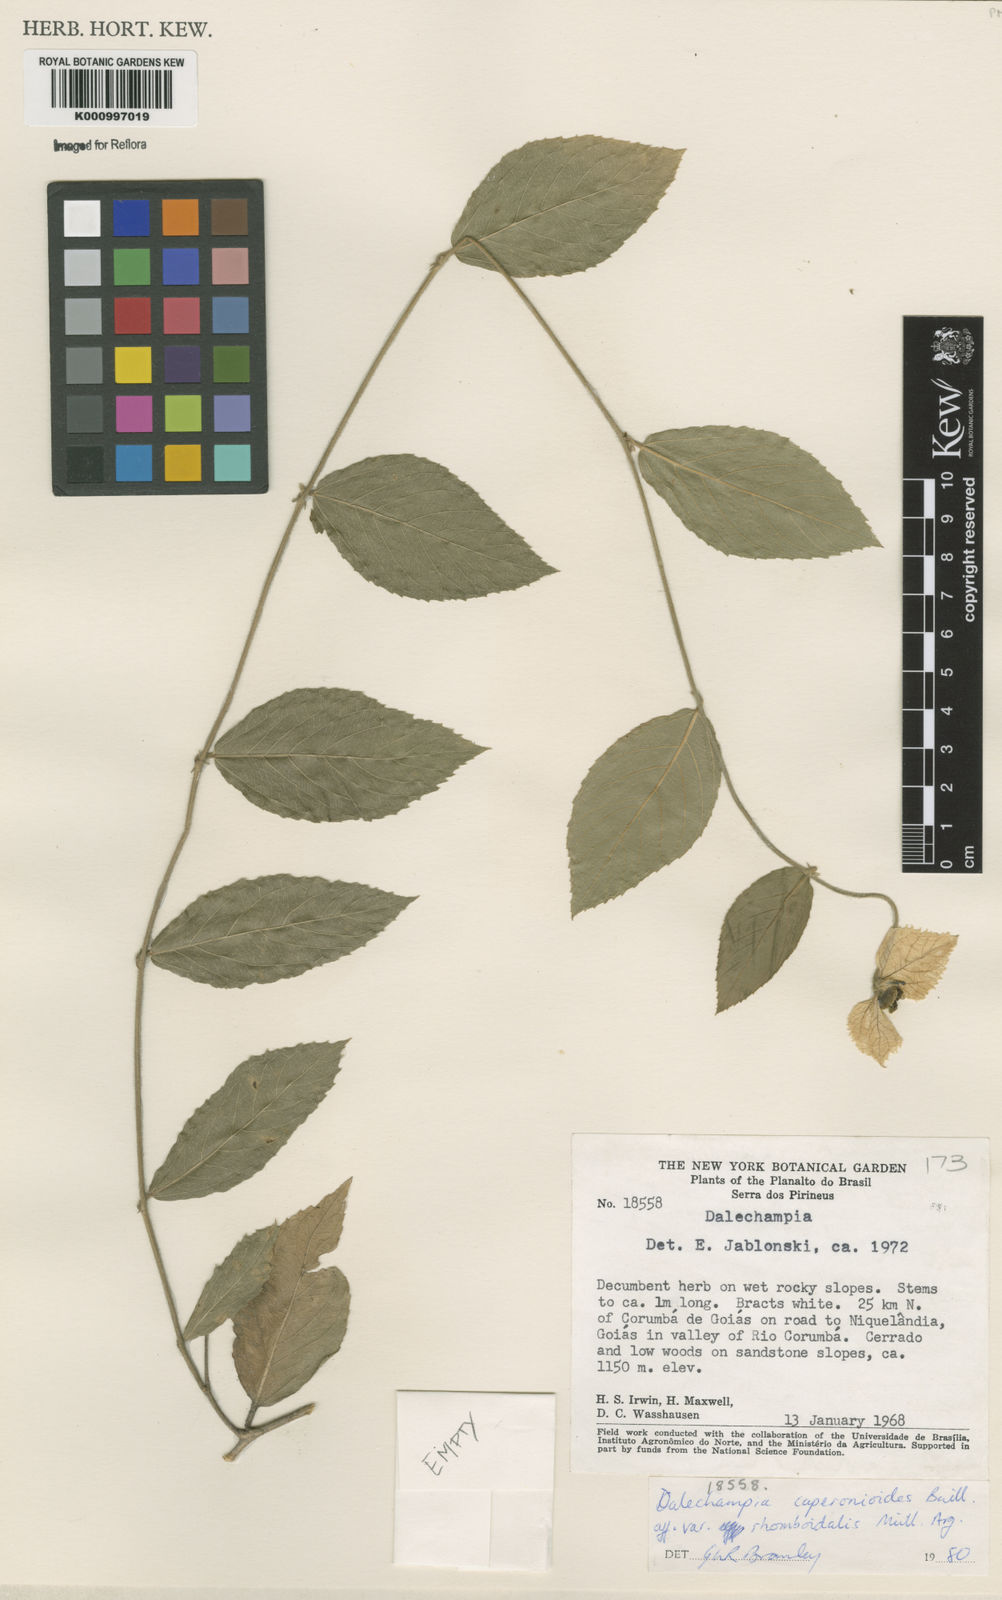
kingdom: Plantae
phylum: Tracheophyta
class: Magnoliopsida
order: Malpighiales
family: Euphorbiaceae
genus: Dalechampia
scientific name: Dalechampia caperonioides
